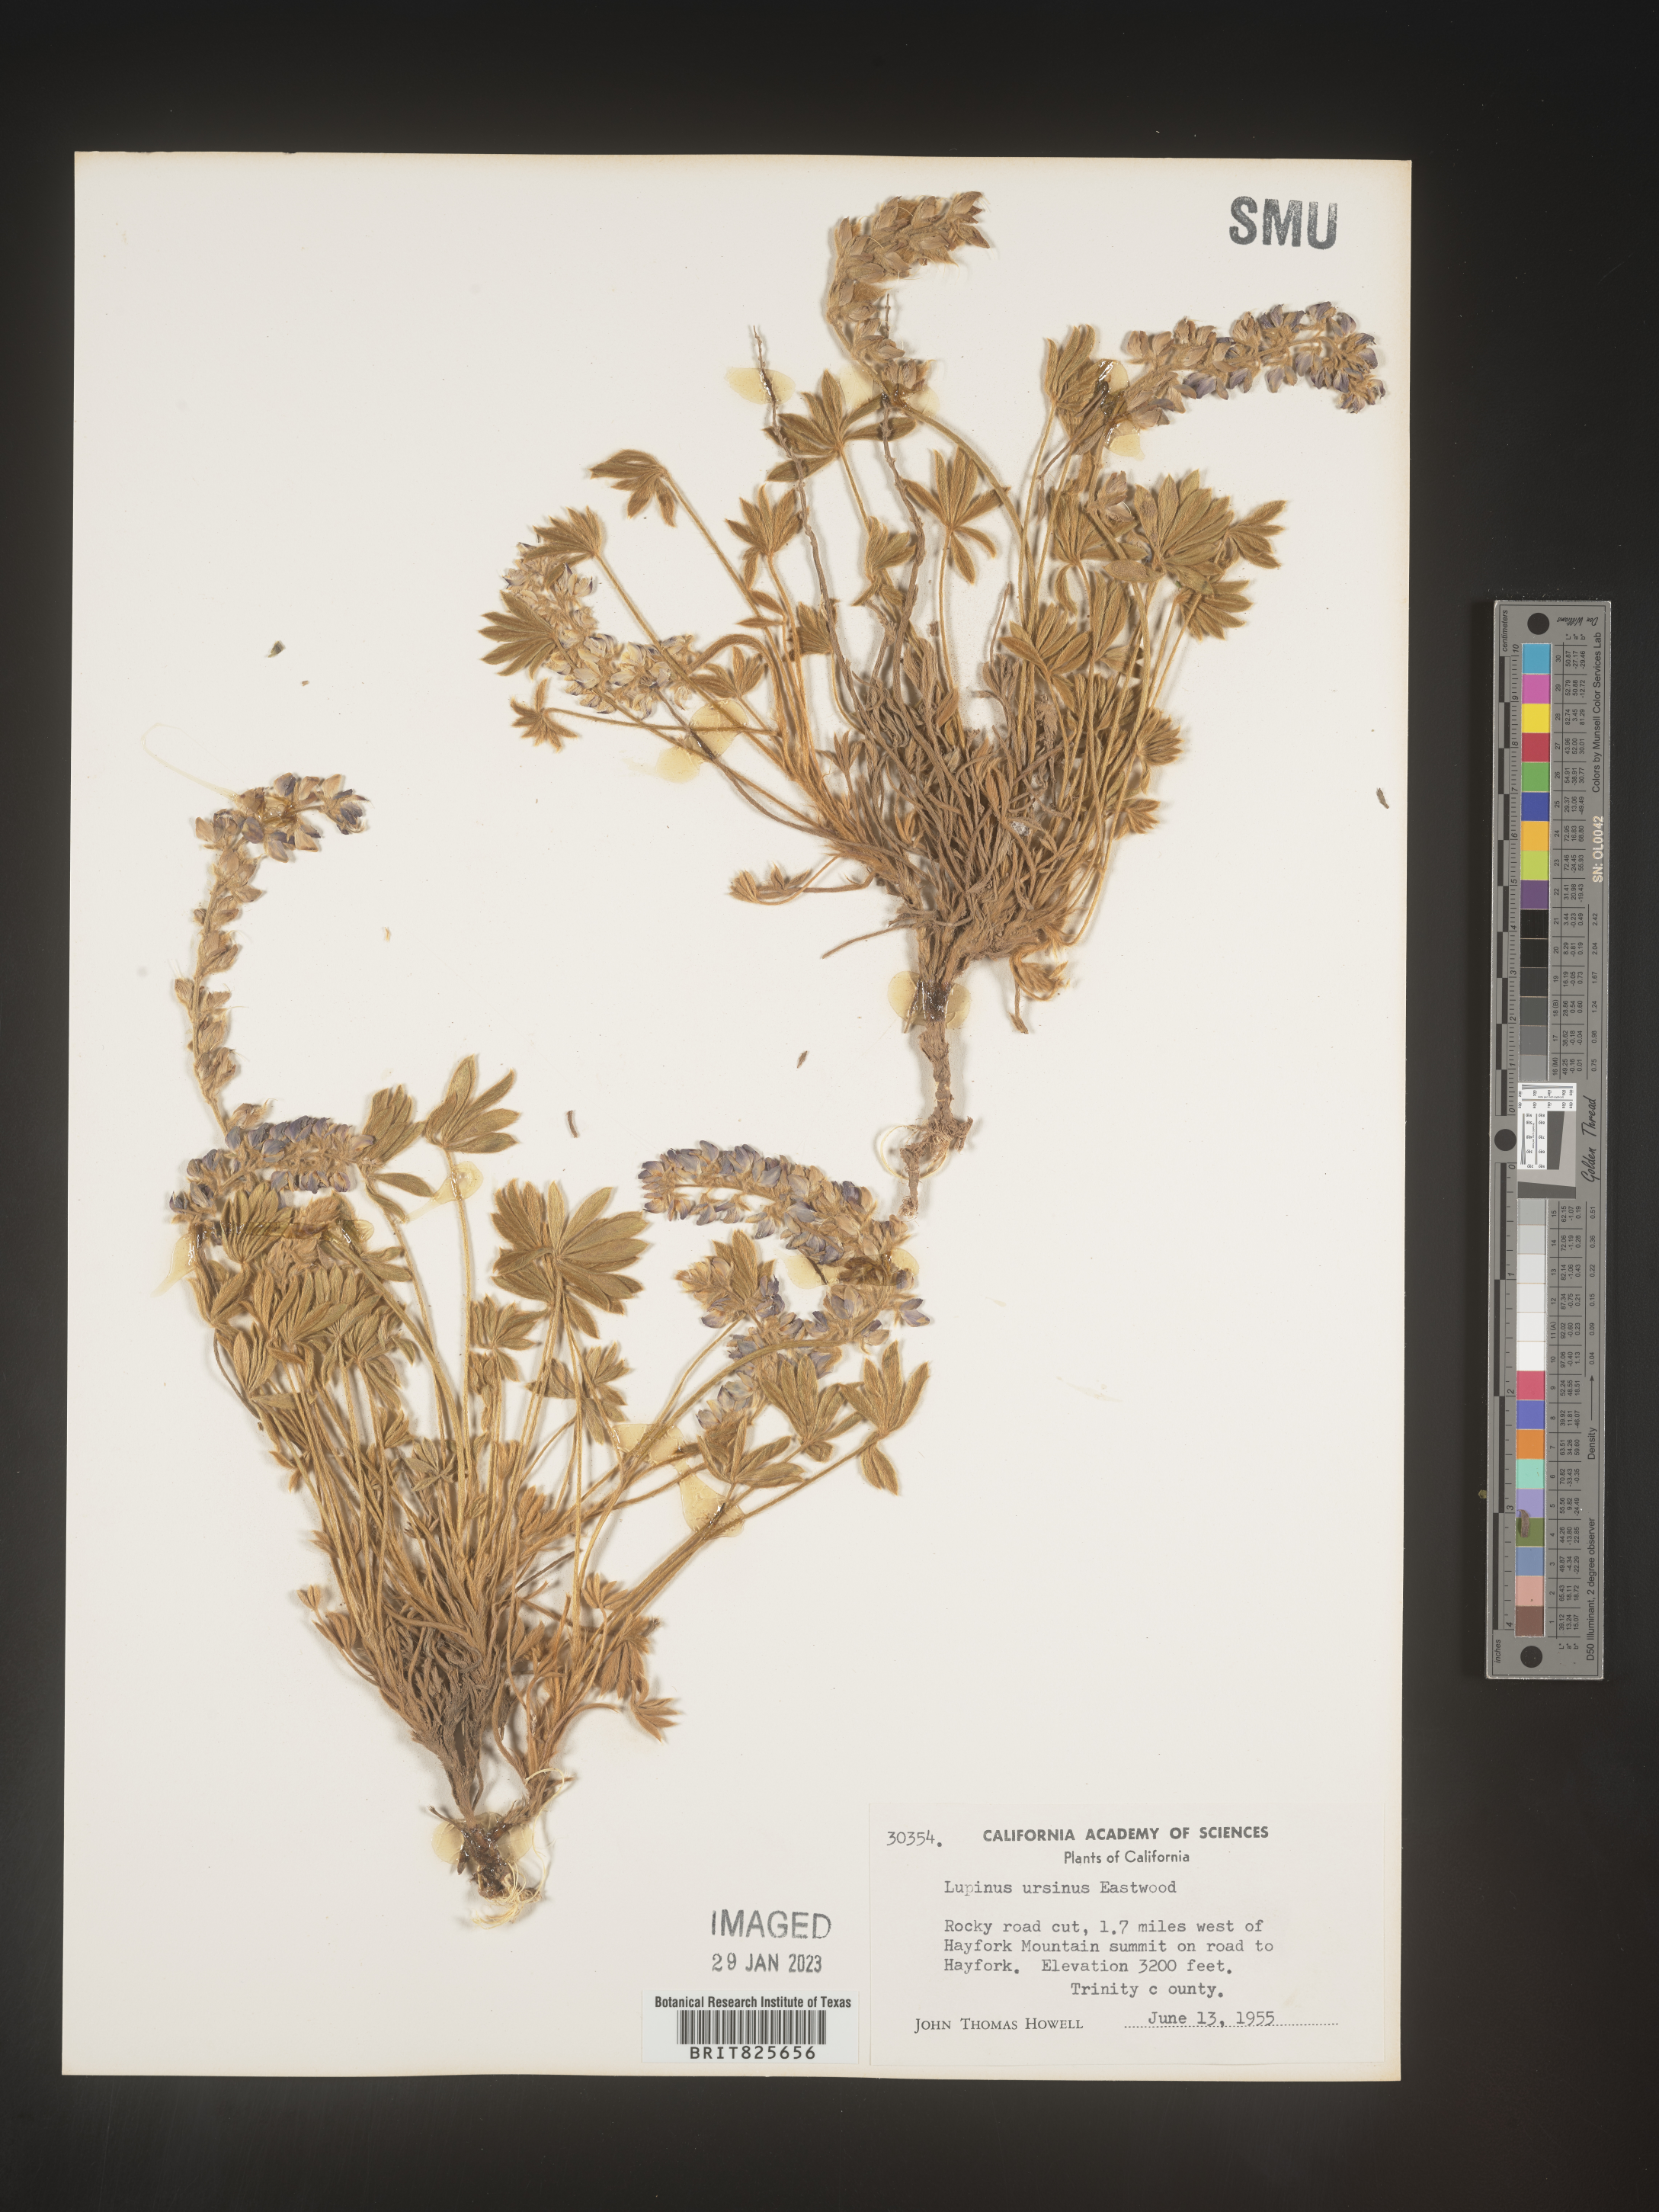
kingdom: Plantae
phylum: Tracheophyta
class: Magnoliopsida
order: Fabales
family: Fabaceae
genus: Lupinus
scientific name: Lupinus
